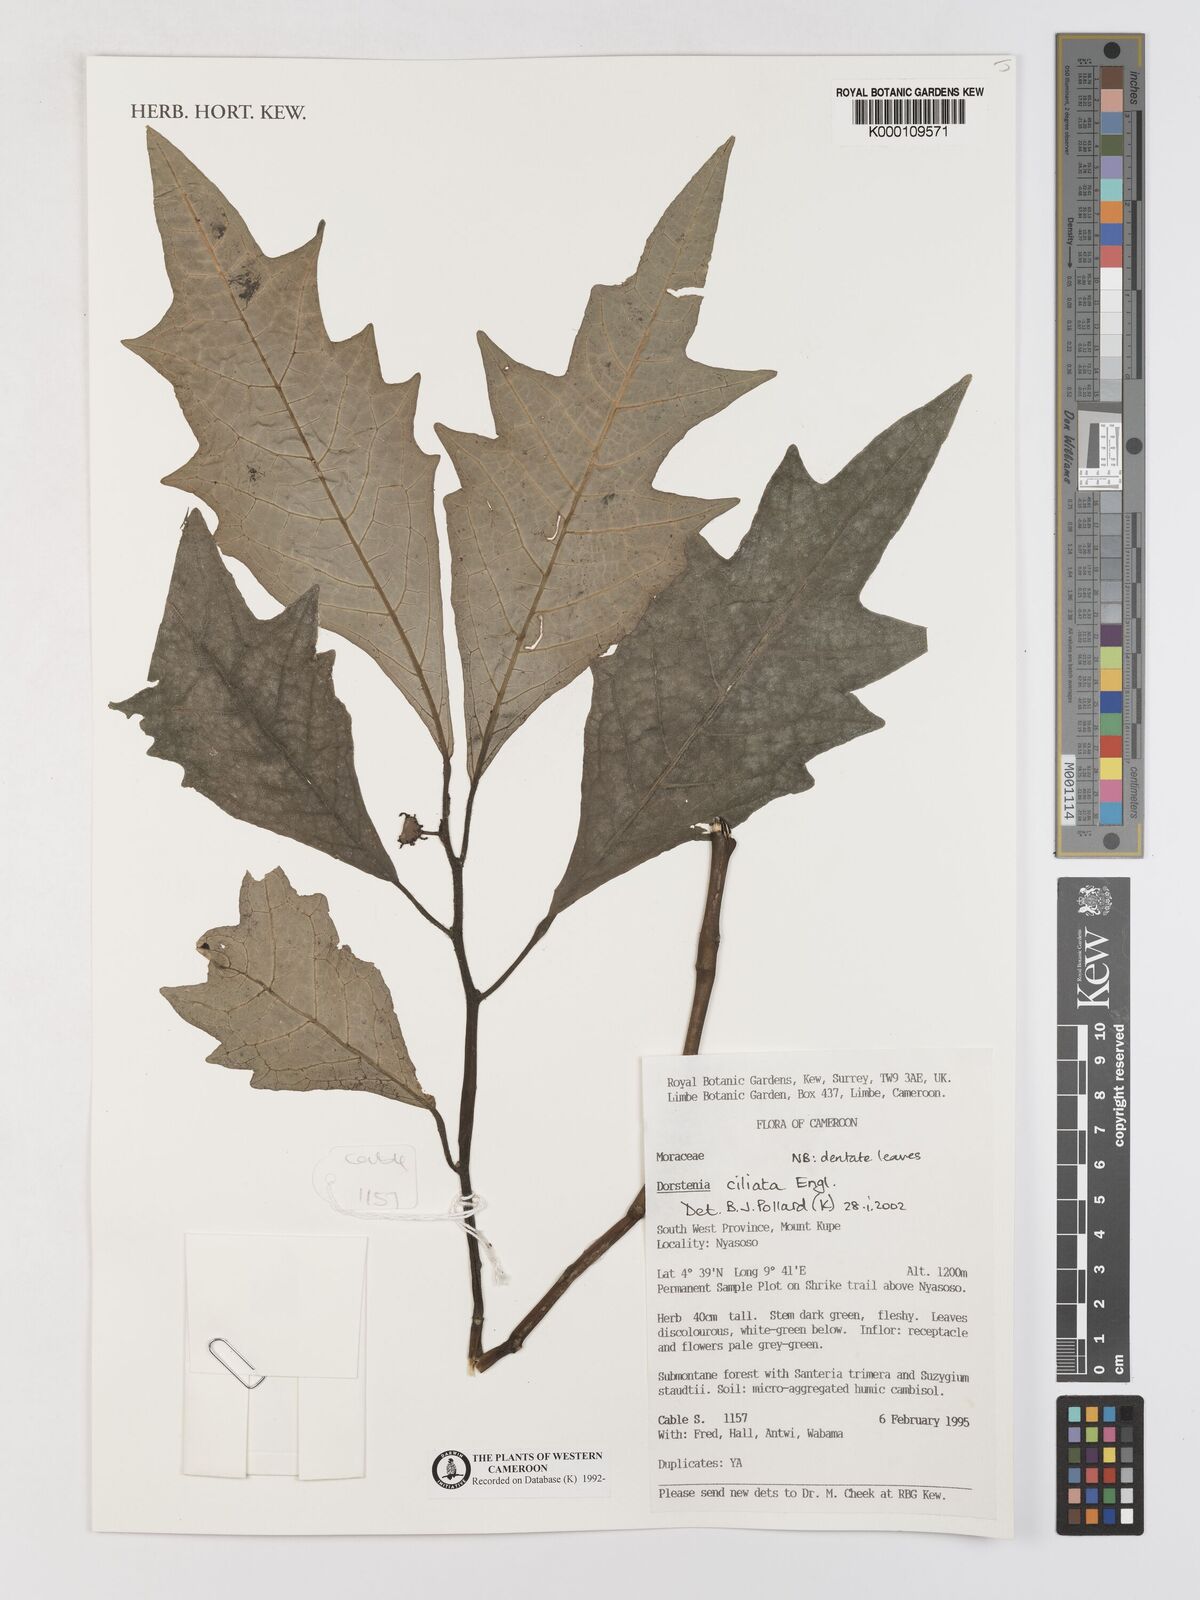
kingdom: Plantae
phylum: Tracheophyta
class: Magnoliopsida
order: Rosales
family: Moraceae
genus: Dorstenia
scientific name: Dorstenia ciliata
